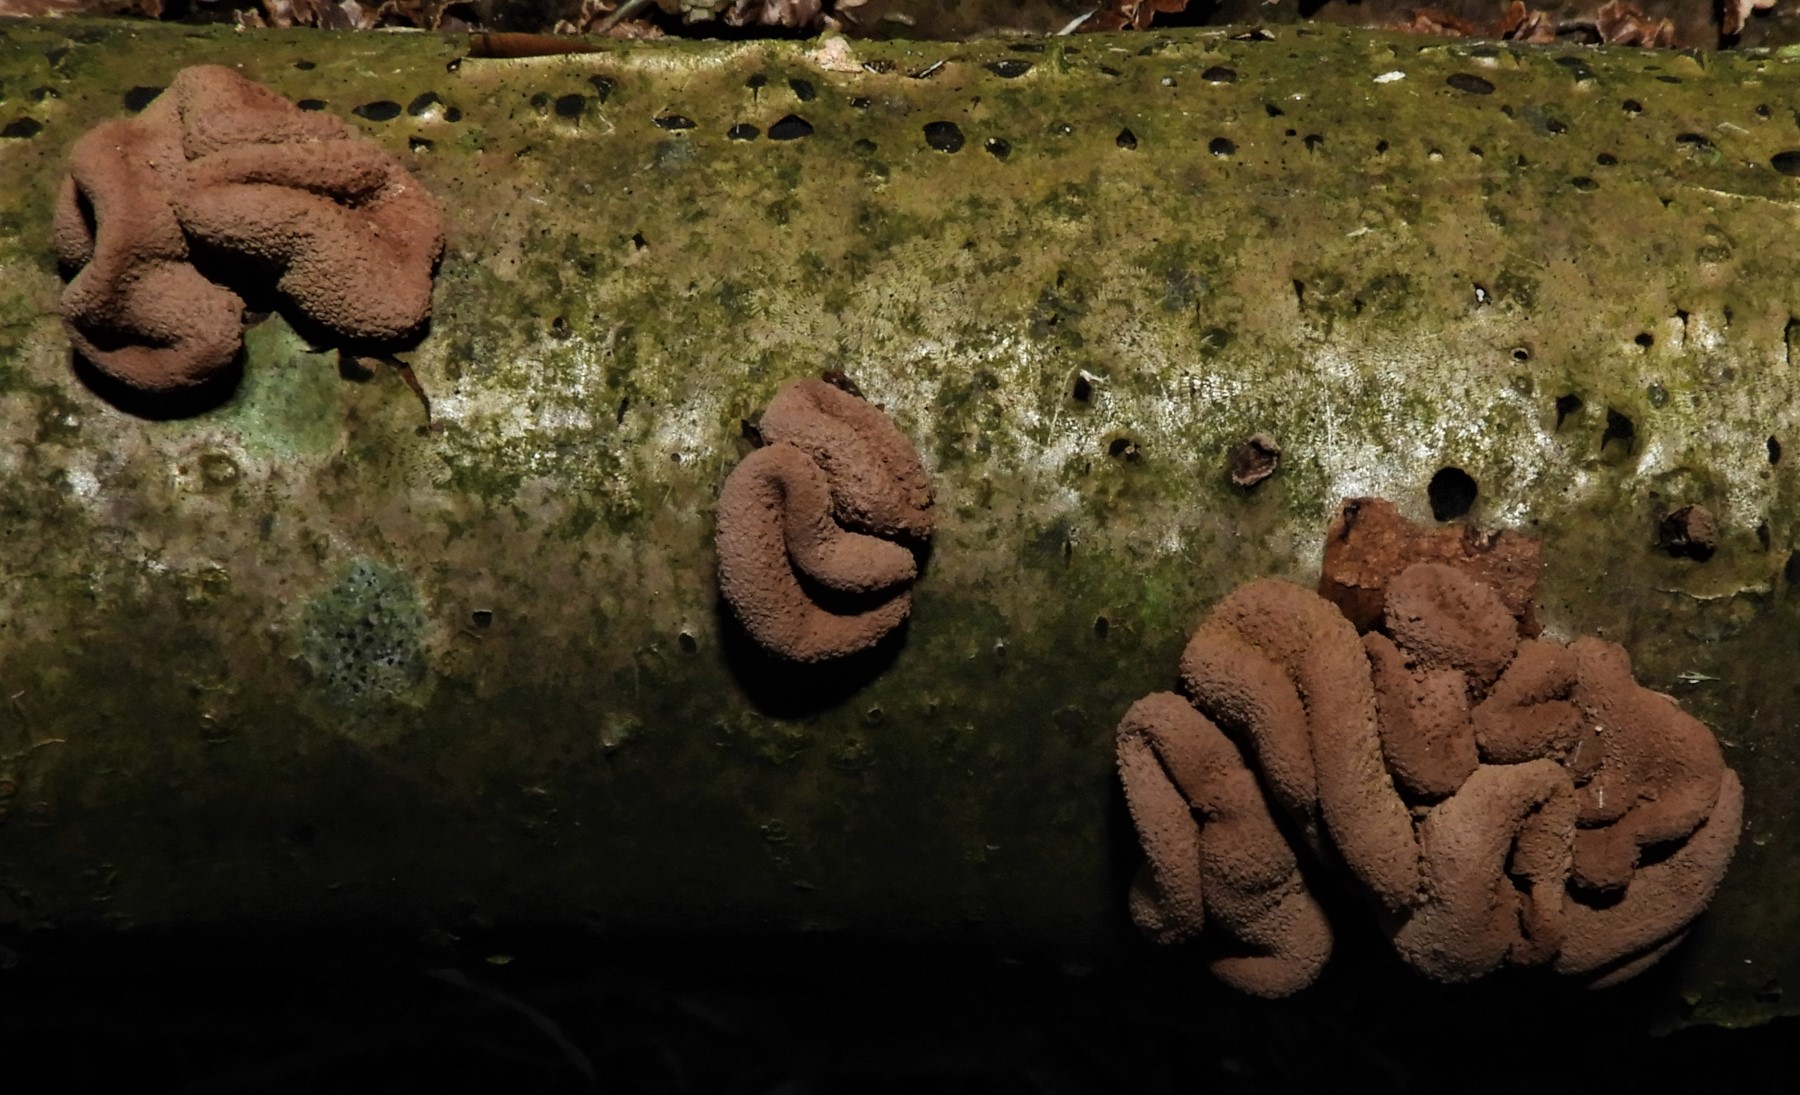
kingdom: Fungi
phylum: Ascomycota
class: Leotiomycetes
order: Helotiales
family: Cenangiaceae
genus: Encoelia
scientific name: Encoelia furfuracea
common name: hassel-læderskive
